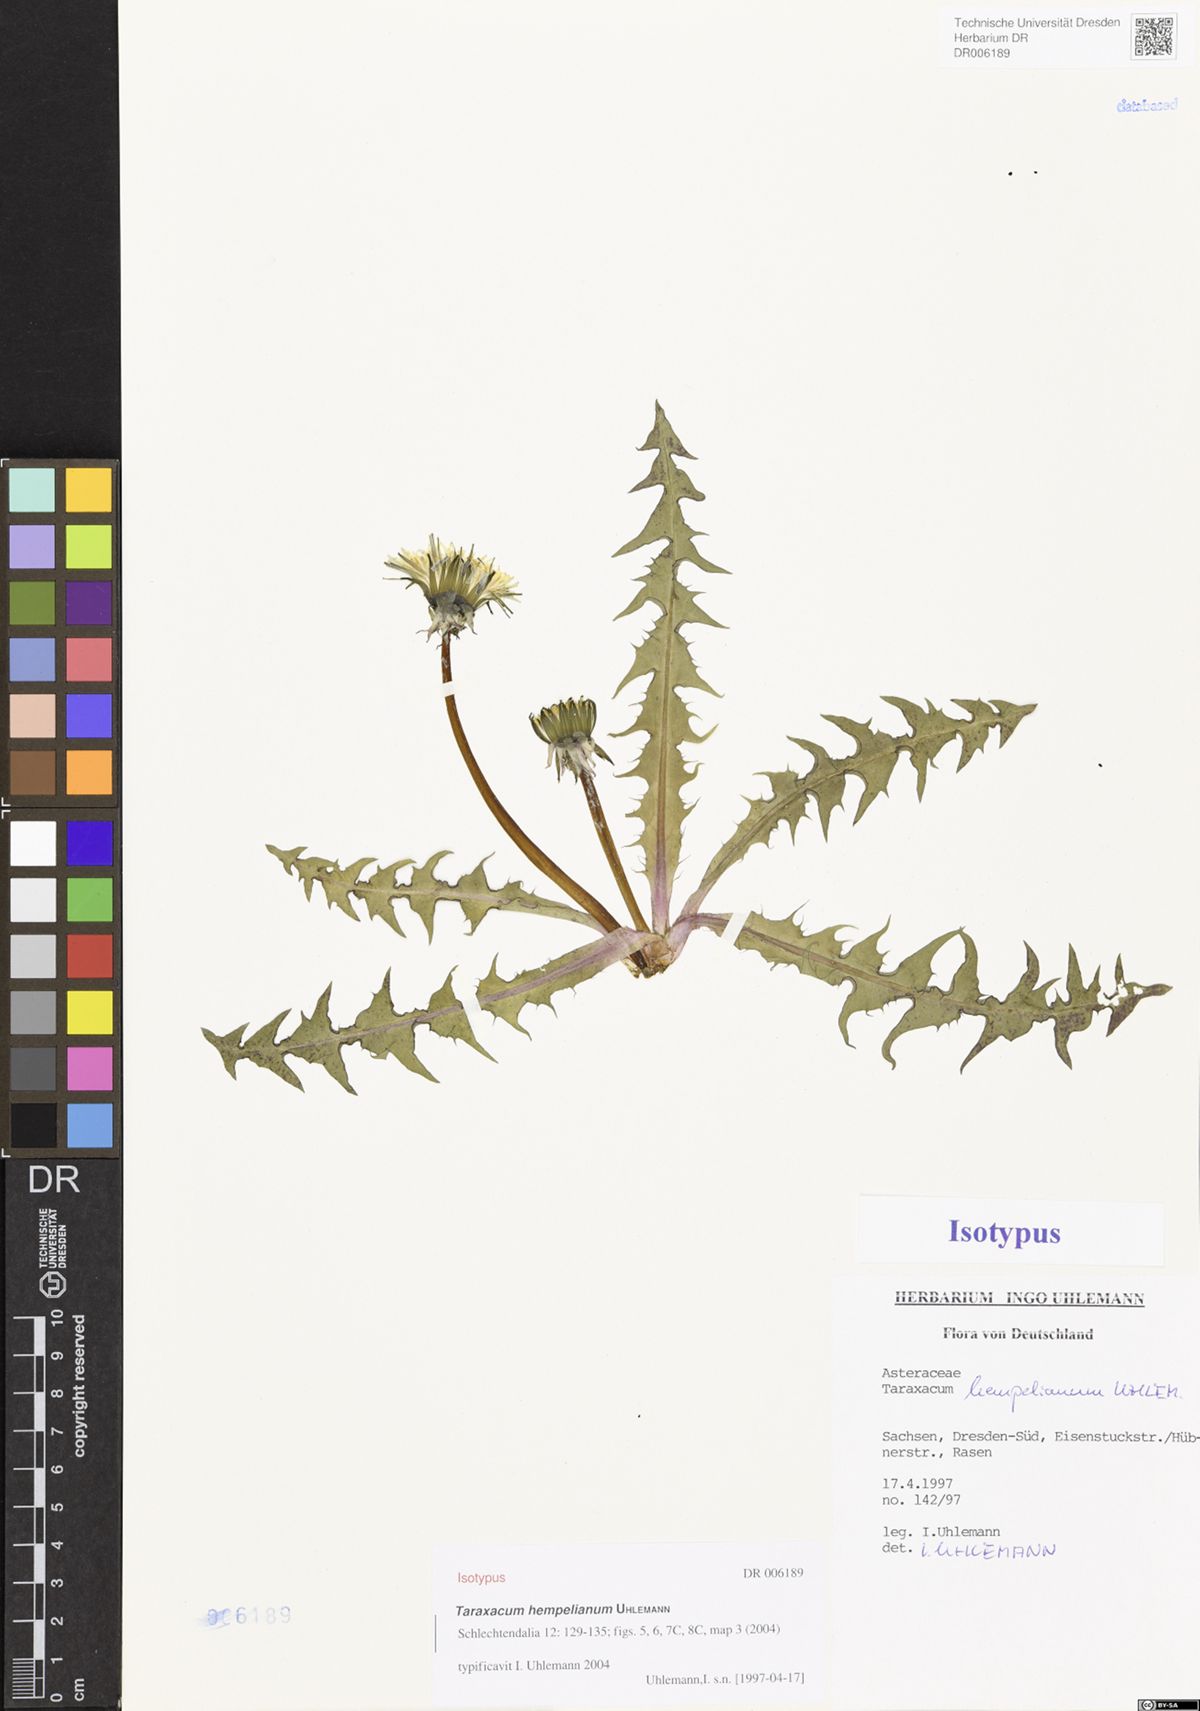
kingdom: Plantae
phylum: Tracheophyta
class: Magnoliopsida
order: Asterales
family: Asteraceae
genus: Taraxacum
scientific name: Taraxacum hempelianum
